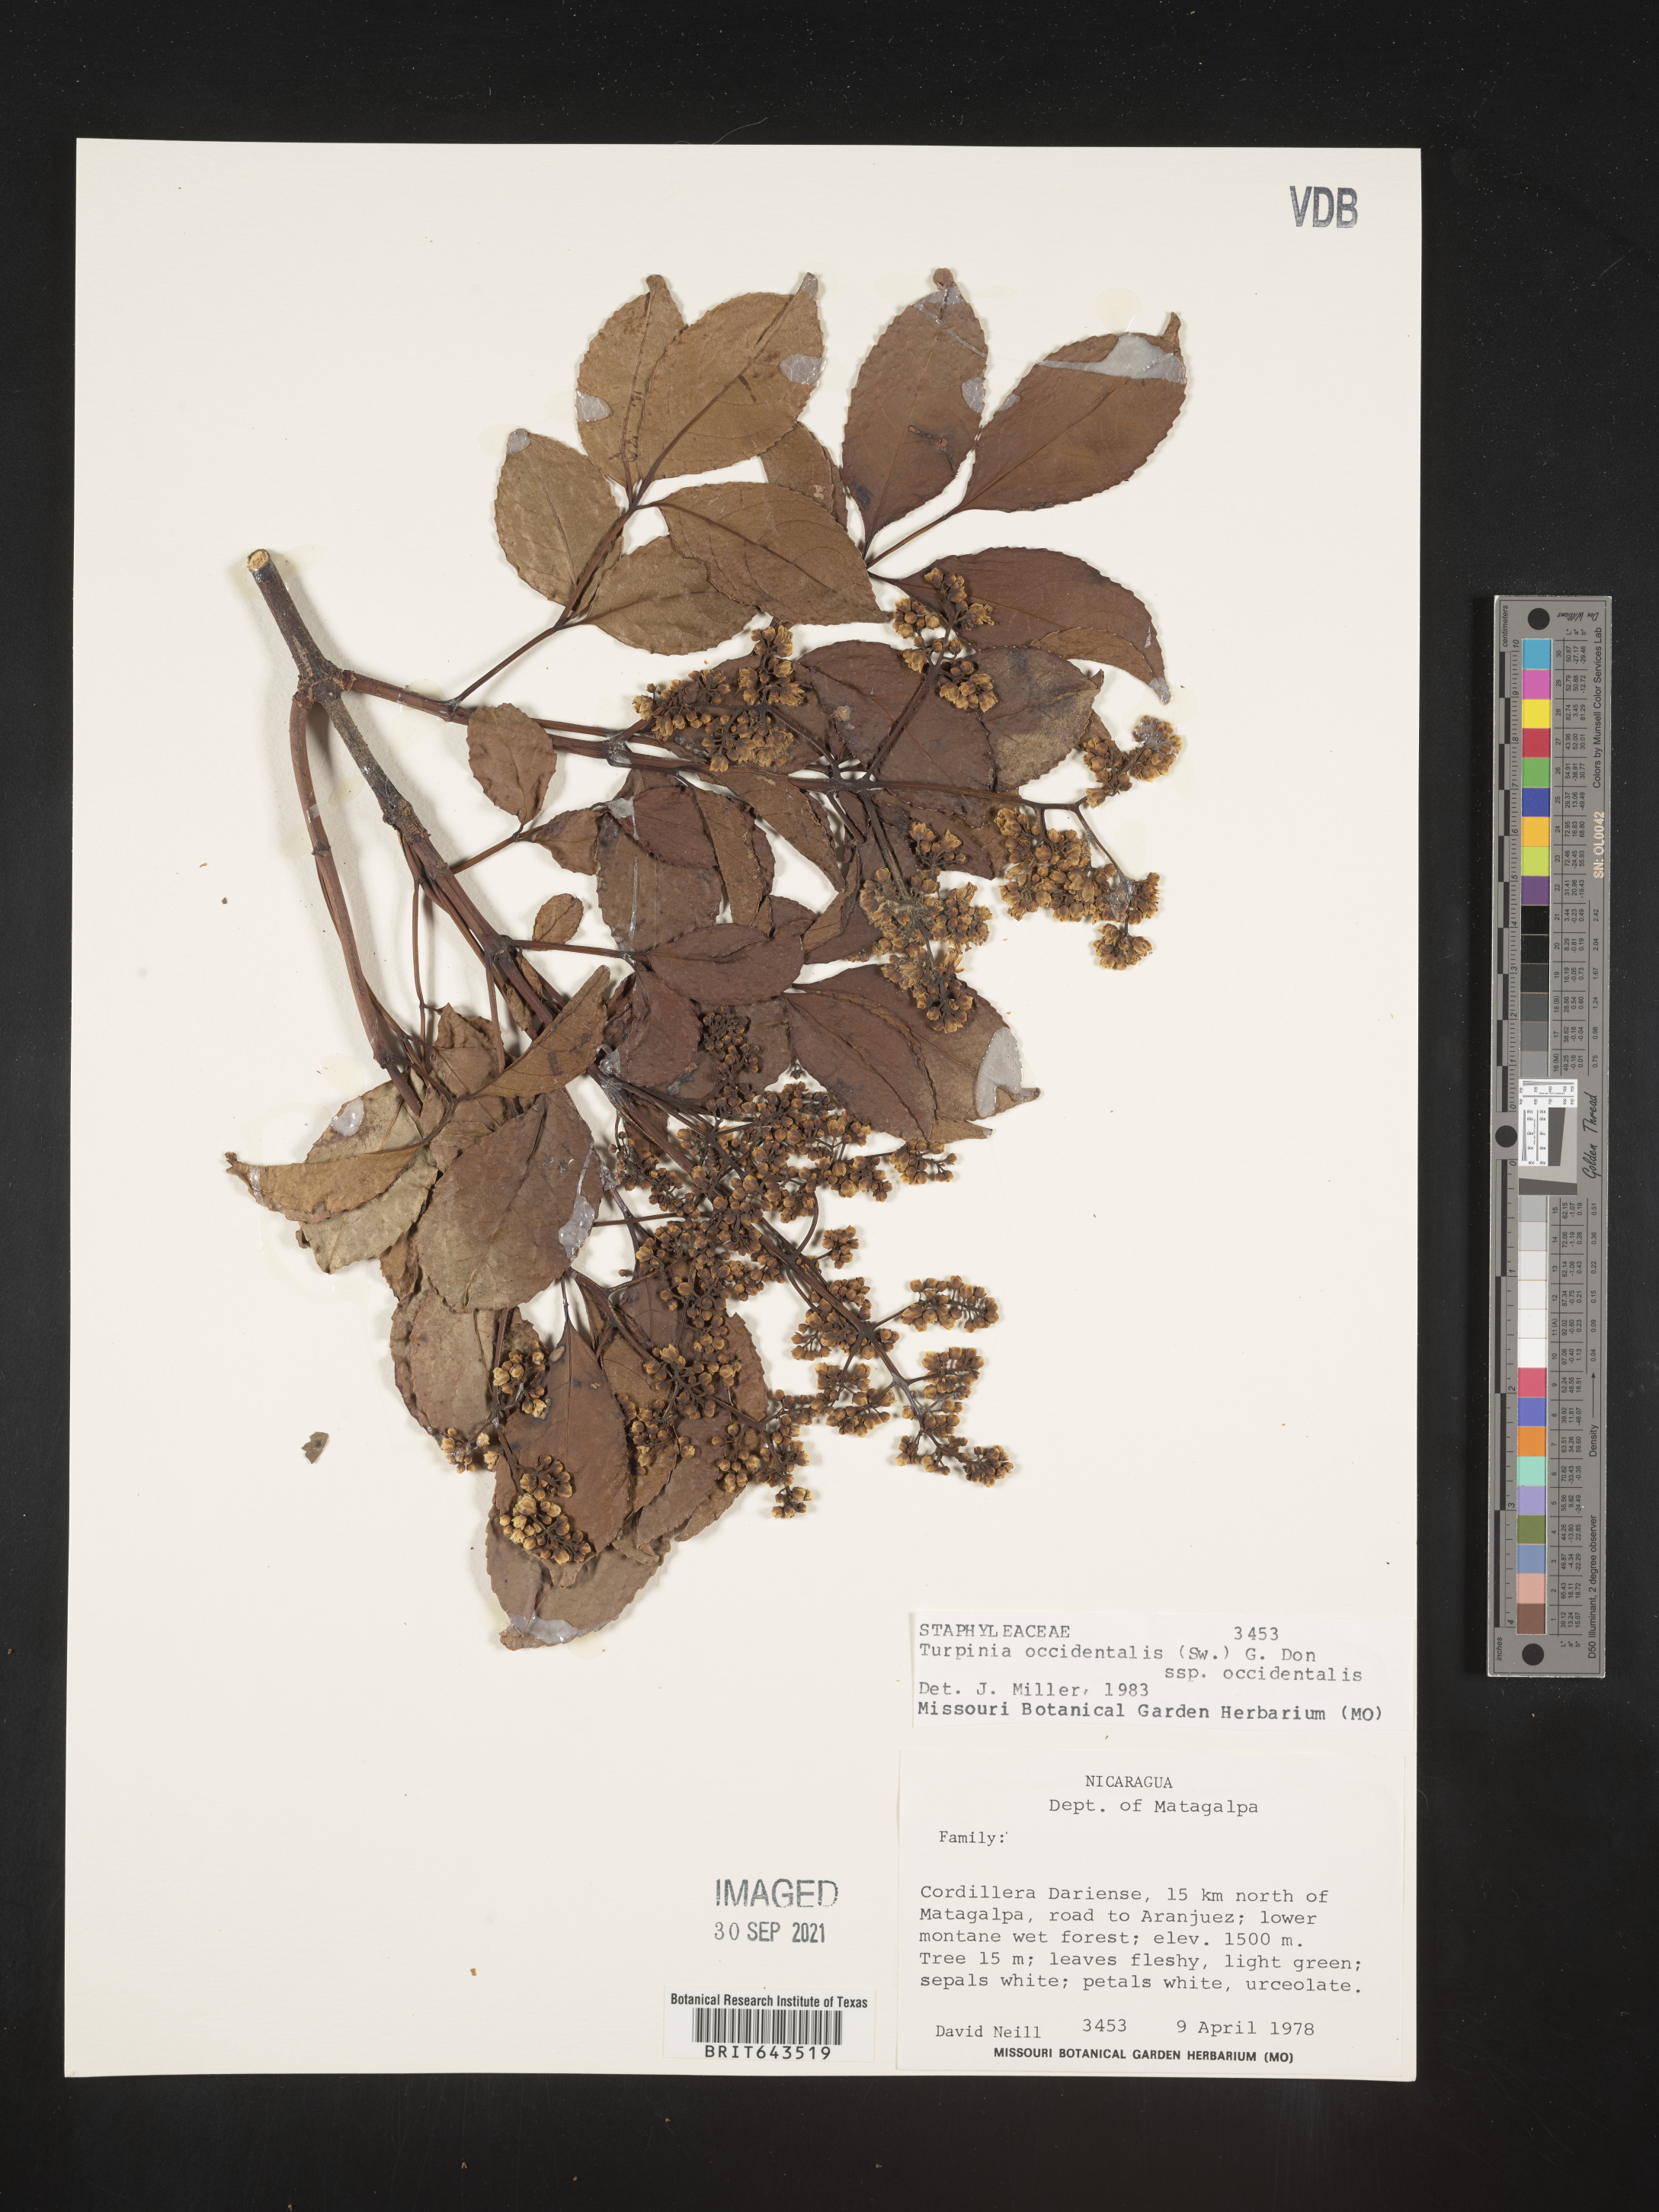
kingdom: Plantae
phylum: Tracheophyta
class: Magnoliopsida
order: Crossosomatales
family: Staphyleaceae
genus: Staphylea
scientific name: Staphylea
